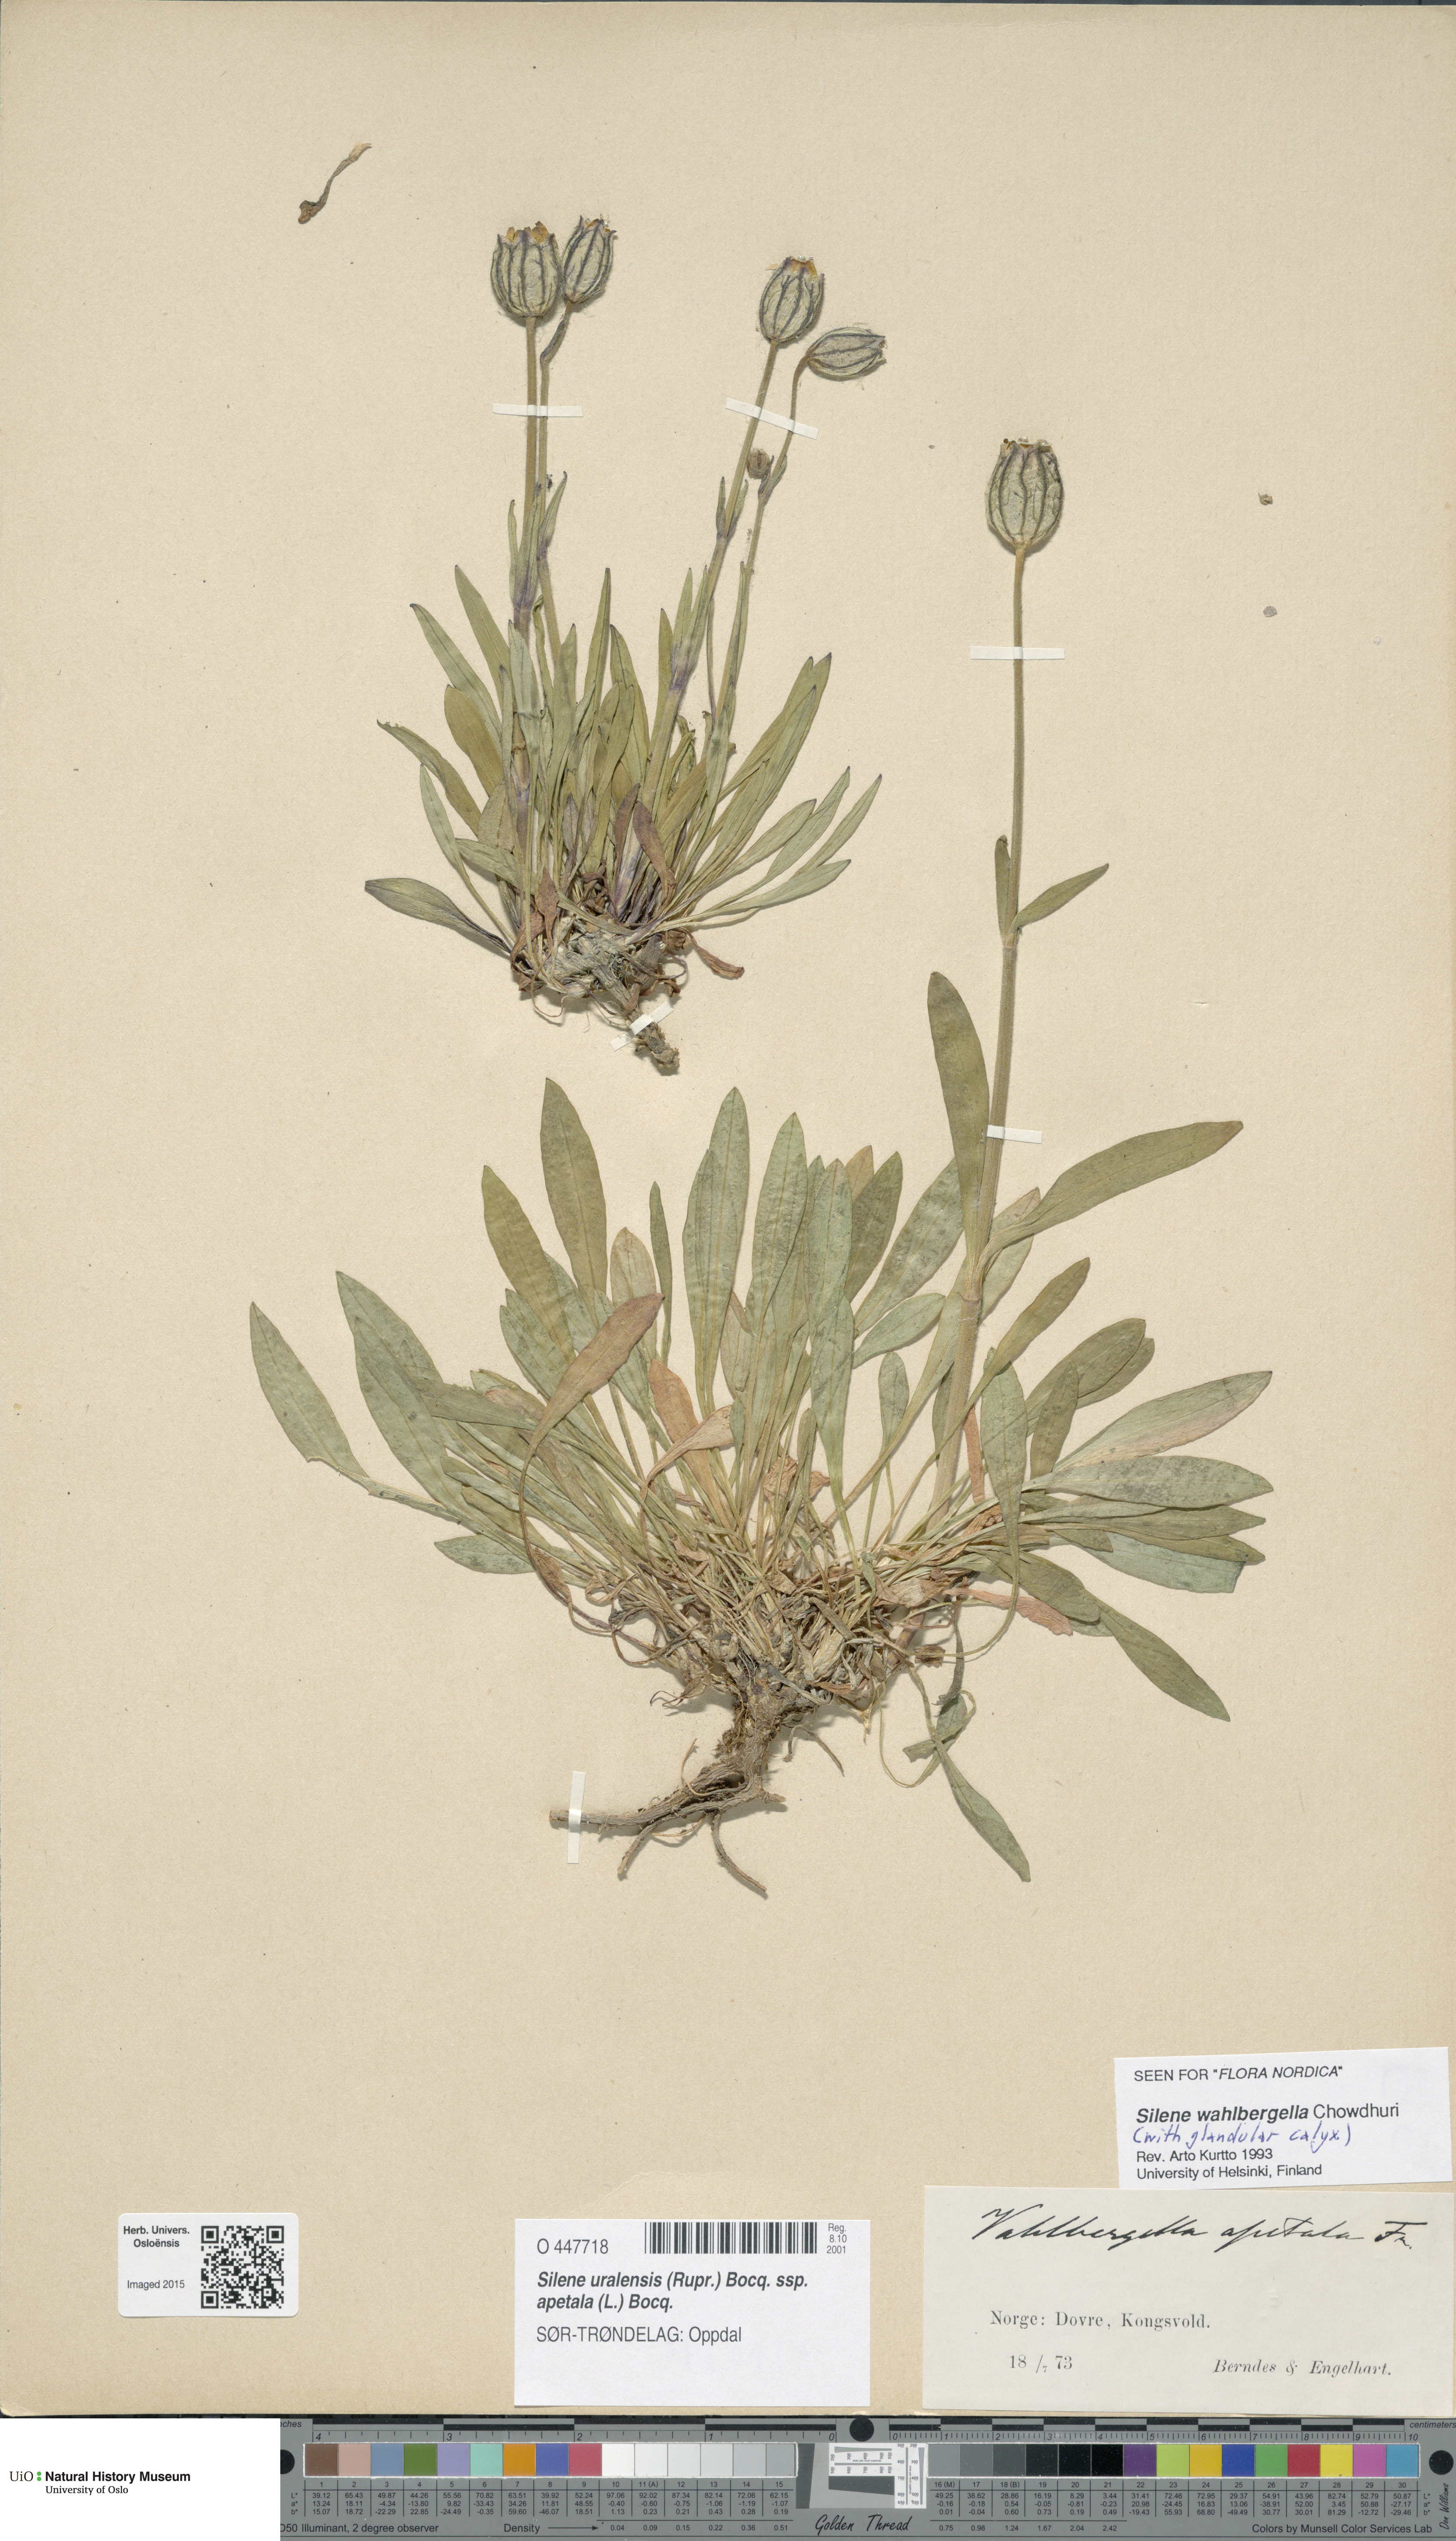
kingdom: Plantae
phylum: Tracheophyta
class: Magnoliopsida
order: Caryophyllales
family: Caryophyllaceae
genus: Silene
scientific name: Silene wahlbergella
